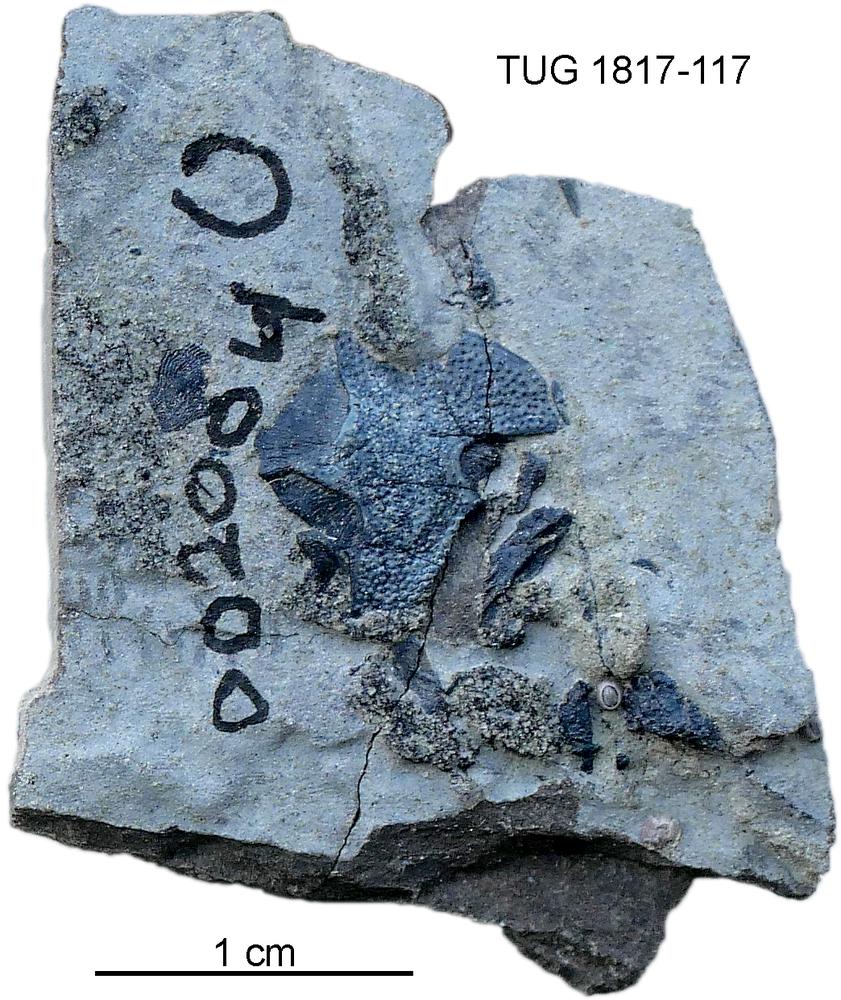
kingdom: Animalia
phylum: Chordata
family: Coccosteidae
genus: Millerosteus
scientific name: Millerosteus minor
